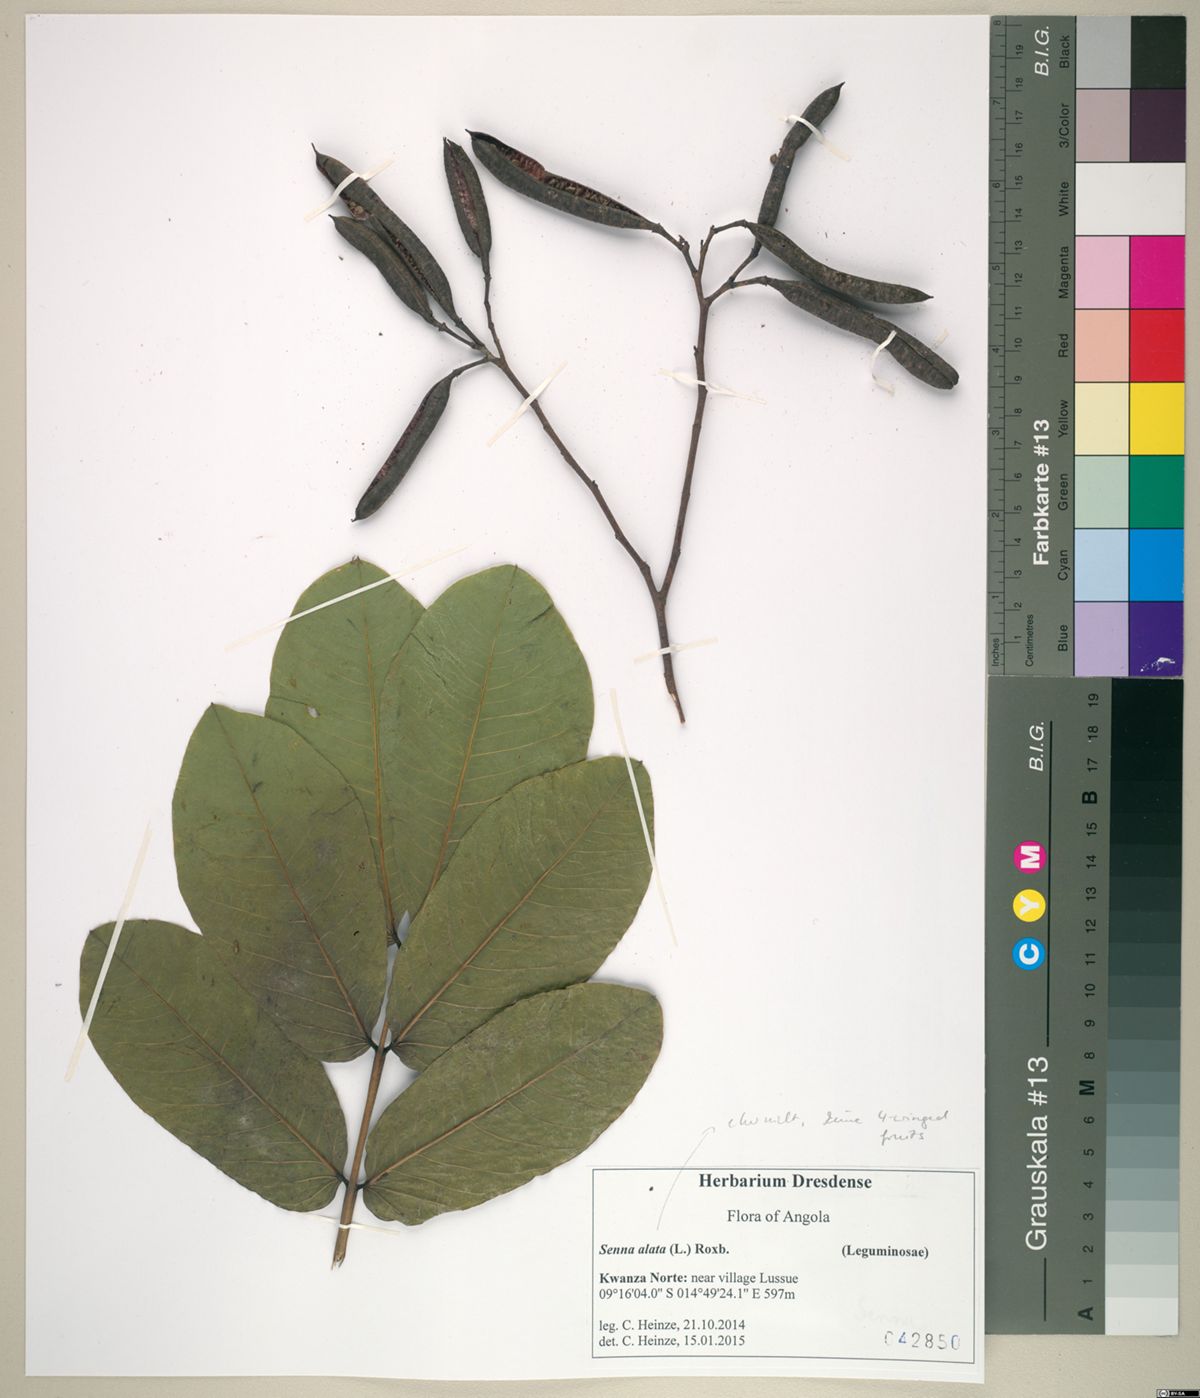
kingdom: Plantae
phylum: Tracheophyta
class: Magnoliopsida
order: Fabales
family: Fabaceae
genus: Senna
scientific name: Senna
